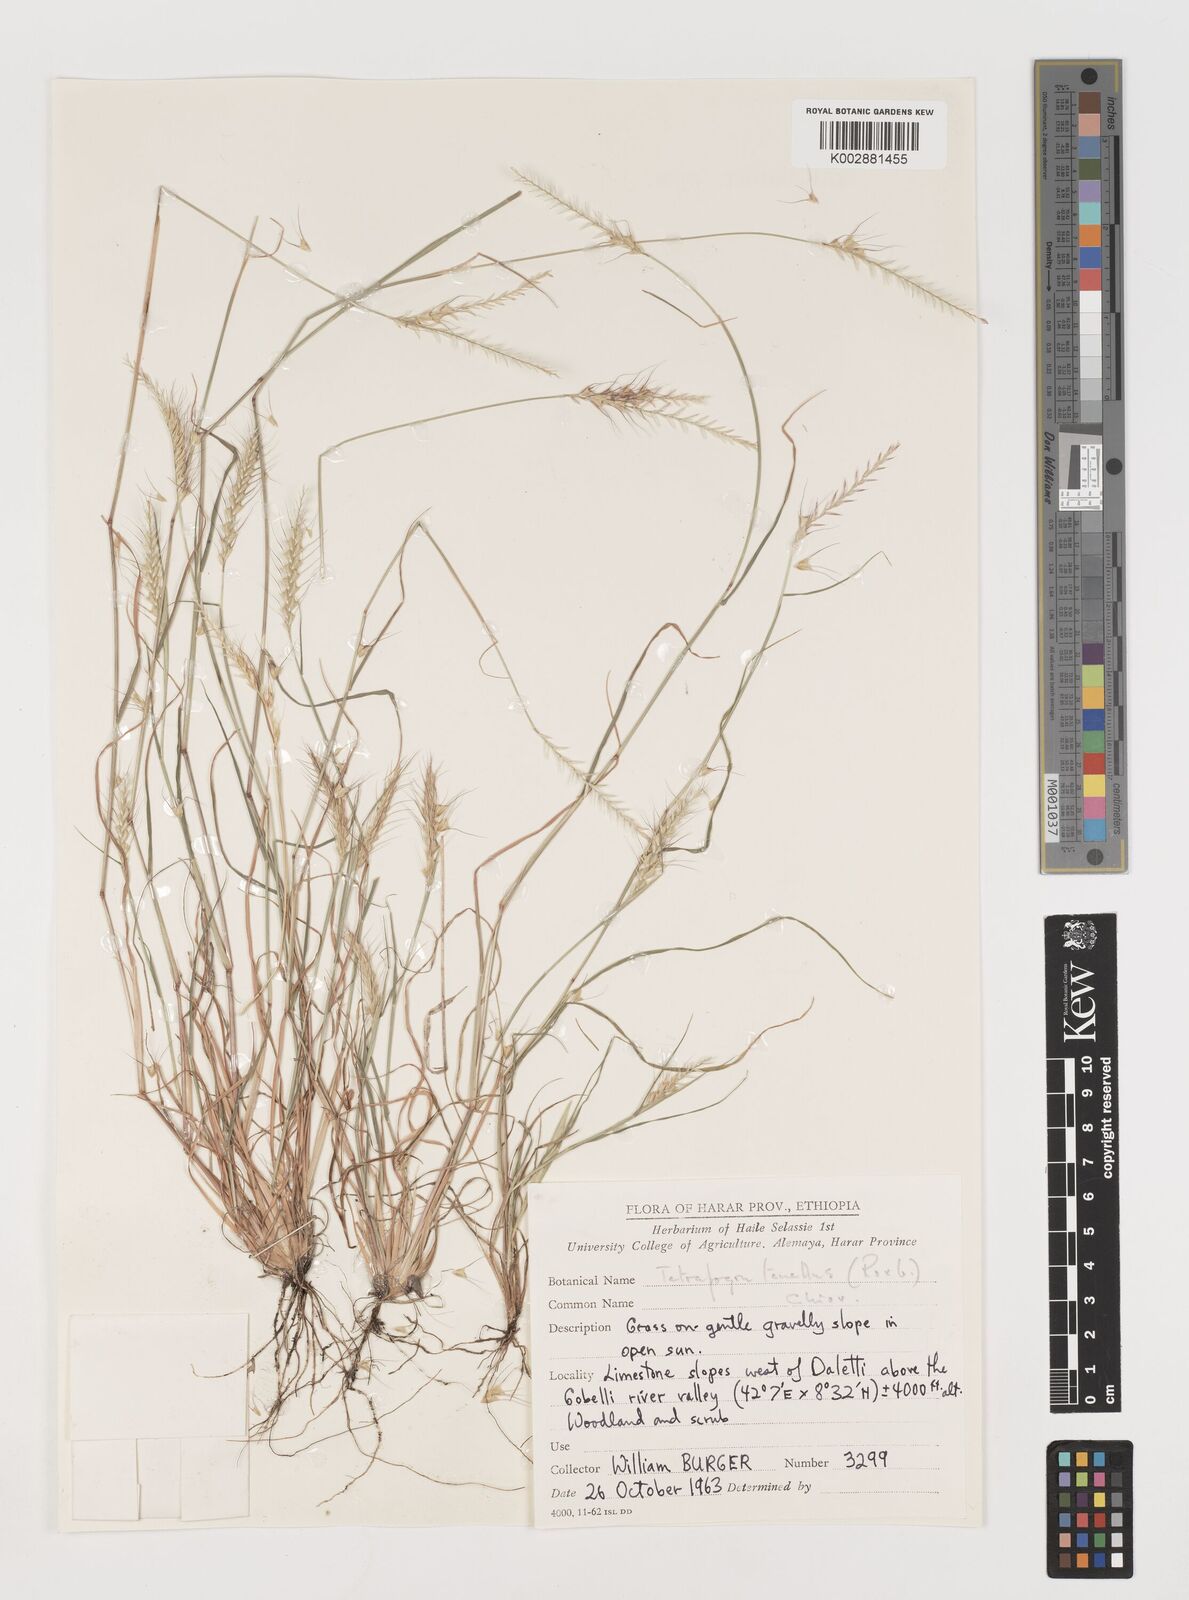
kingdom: Plantae
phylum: Tracheophyta
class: Liliopsida
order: Poales
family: Poaceae
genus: Tetrapogon
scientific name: Tetrapogon tenellus
